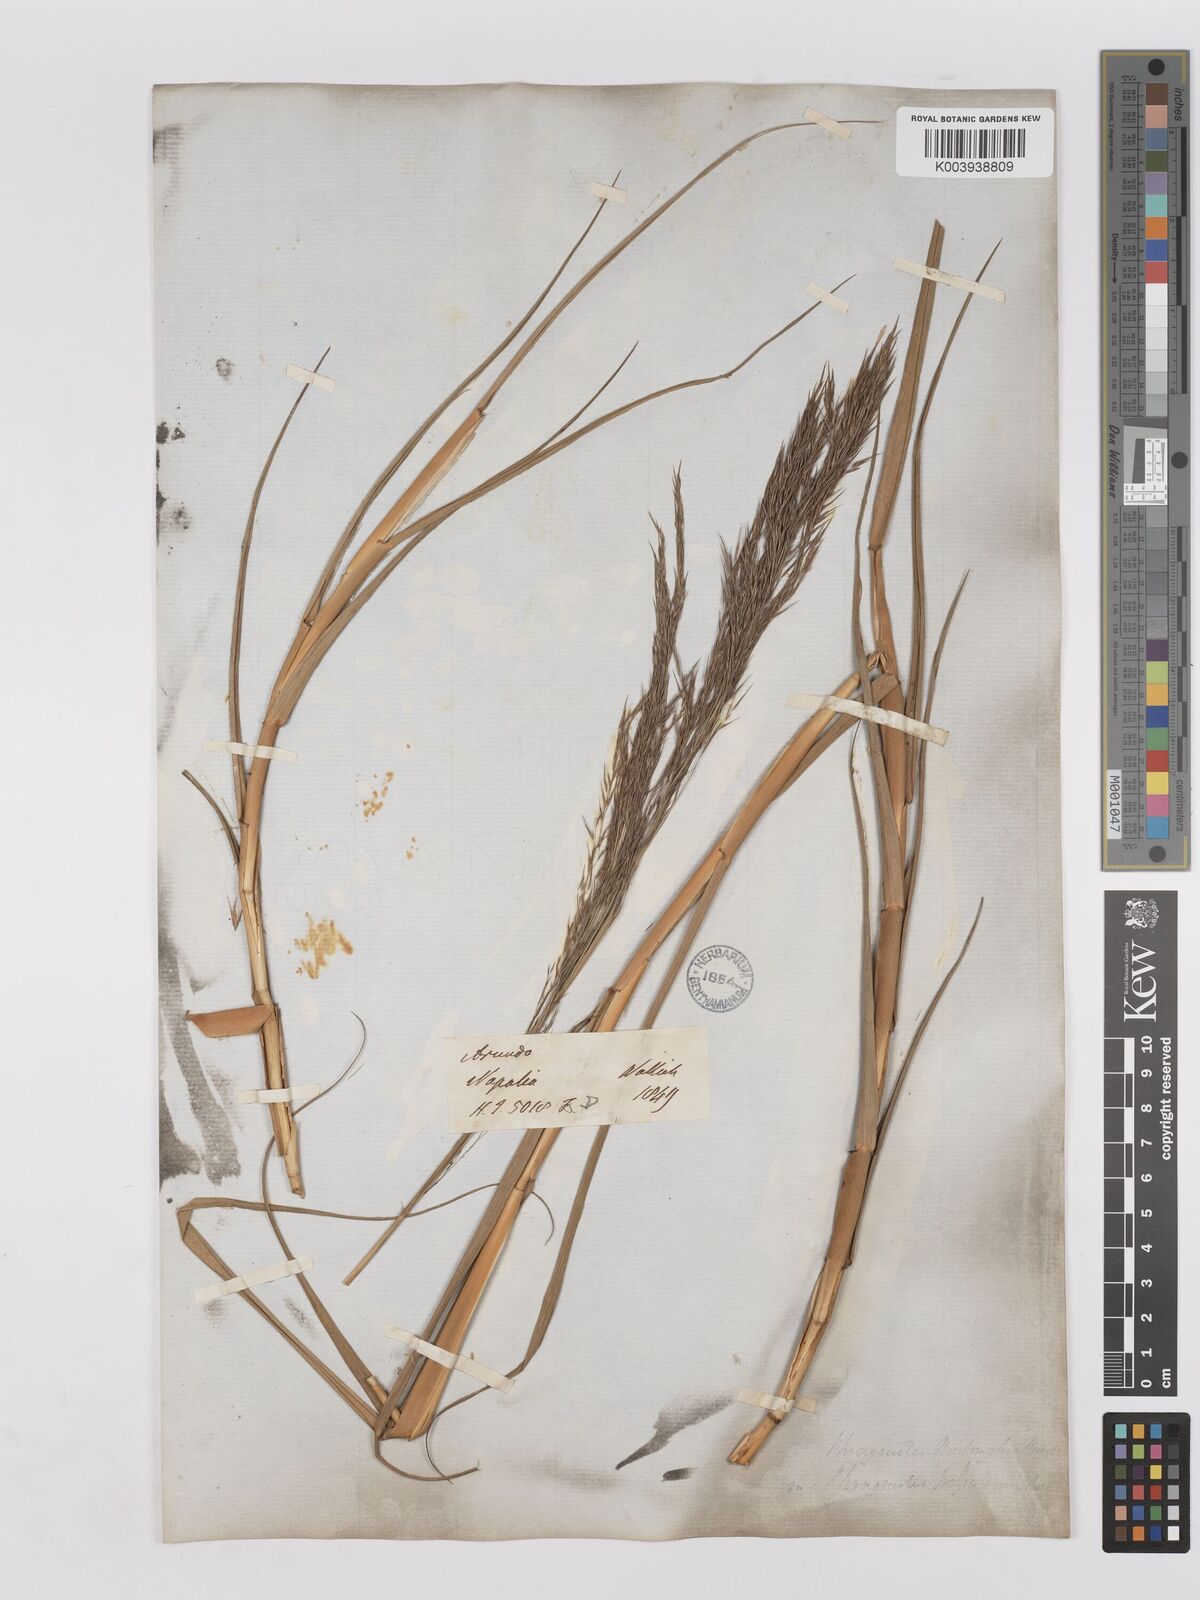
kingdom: Plantae
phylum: Tracheophyta
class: Liliopsida
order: Poales
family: Poaceae
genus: Phragmites
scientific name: Phragmites karka
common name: Tropical reed
